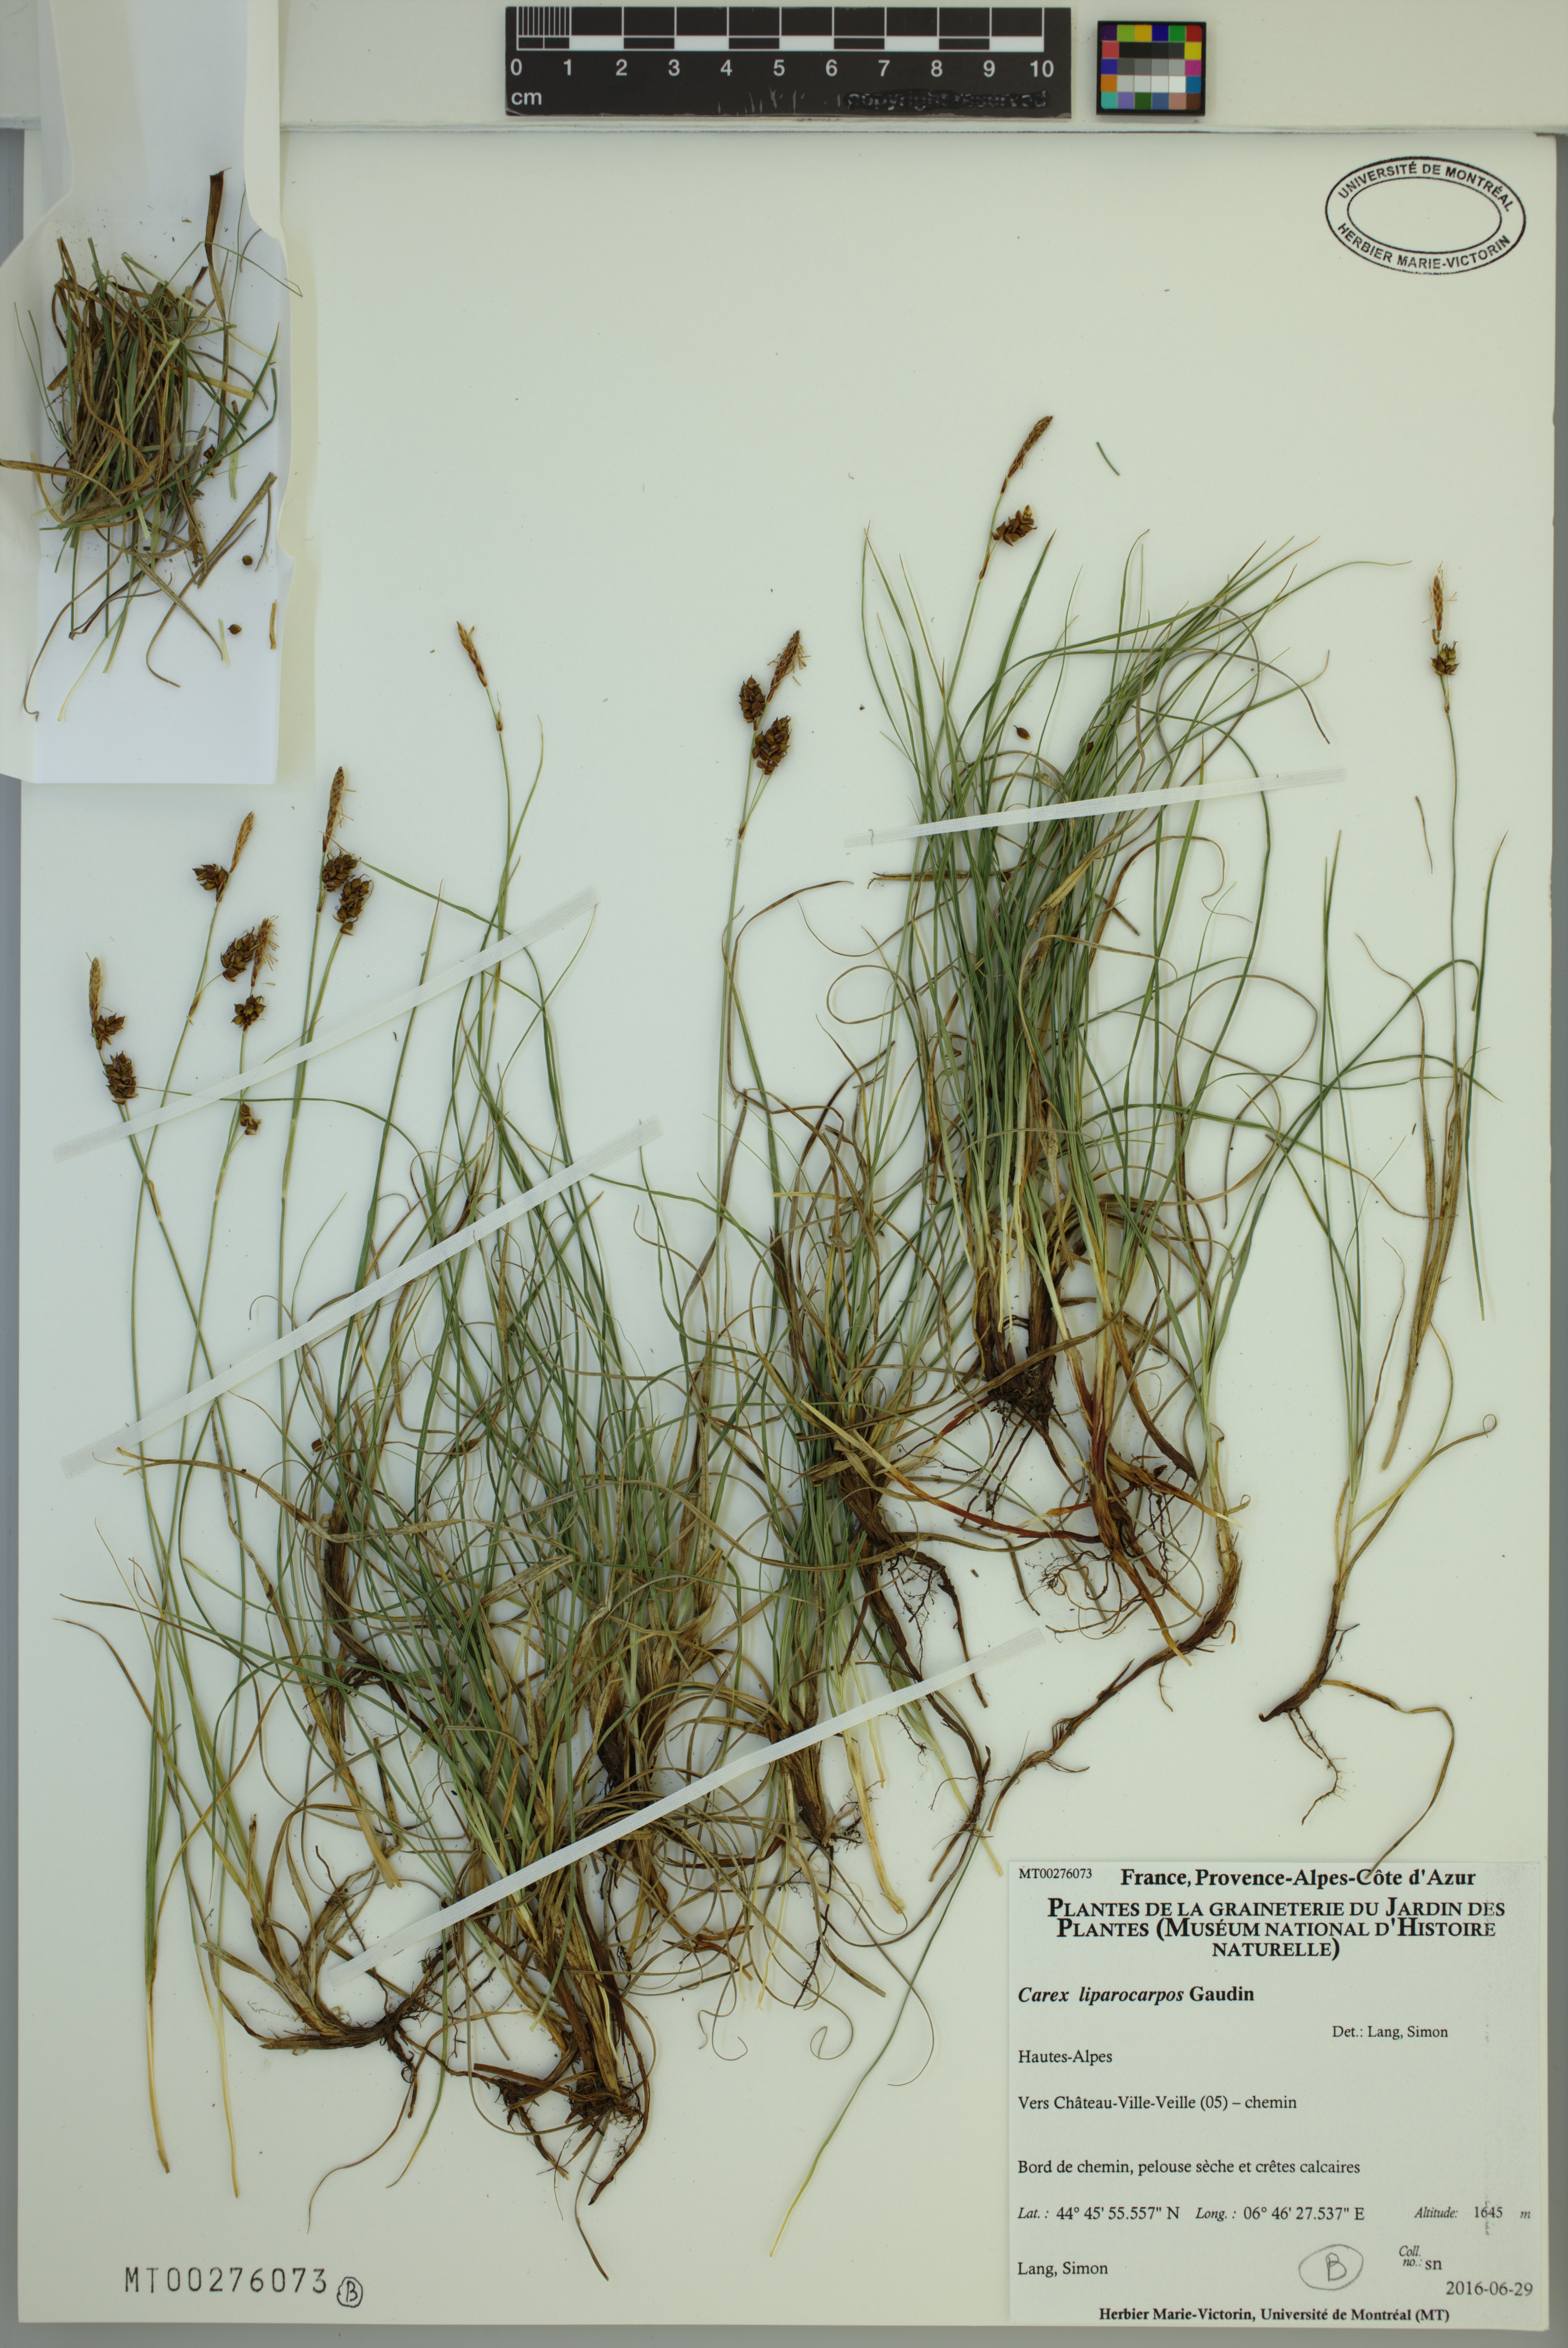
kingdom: Plantae
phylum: Tracheophyta
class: Liliopsida
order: Poales
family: Cyperaceae
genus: Carex
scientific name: Carex liparocarpos
